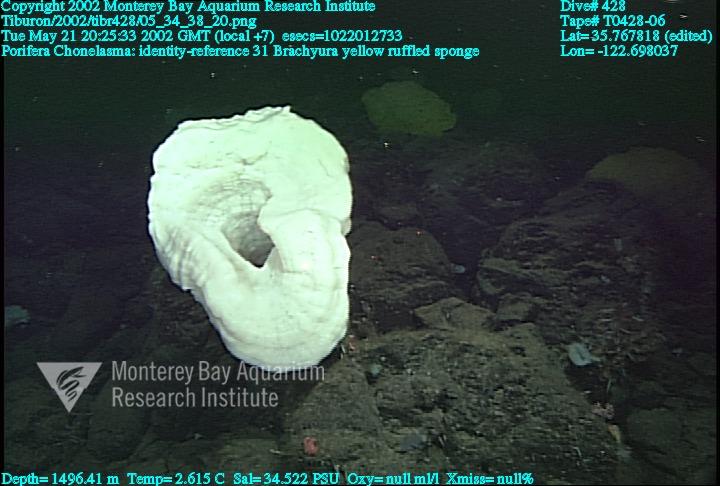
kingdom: Animalia
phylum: Porifera
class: Hexactinellida
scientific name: Hexactinellida
